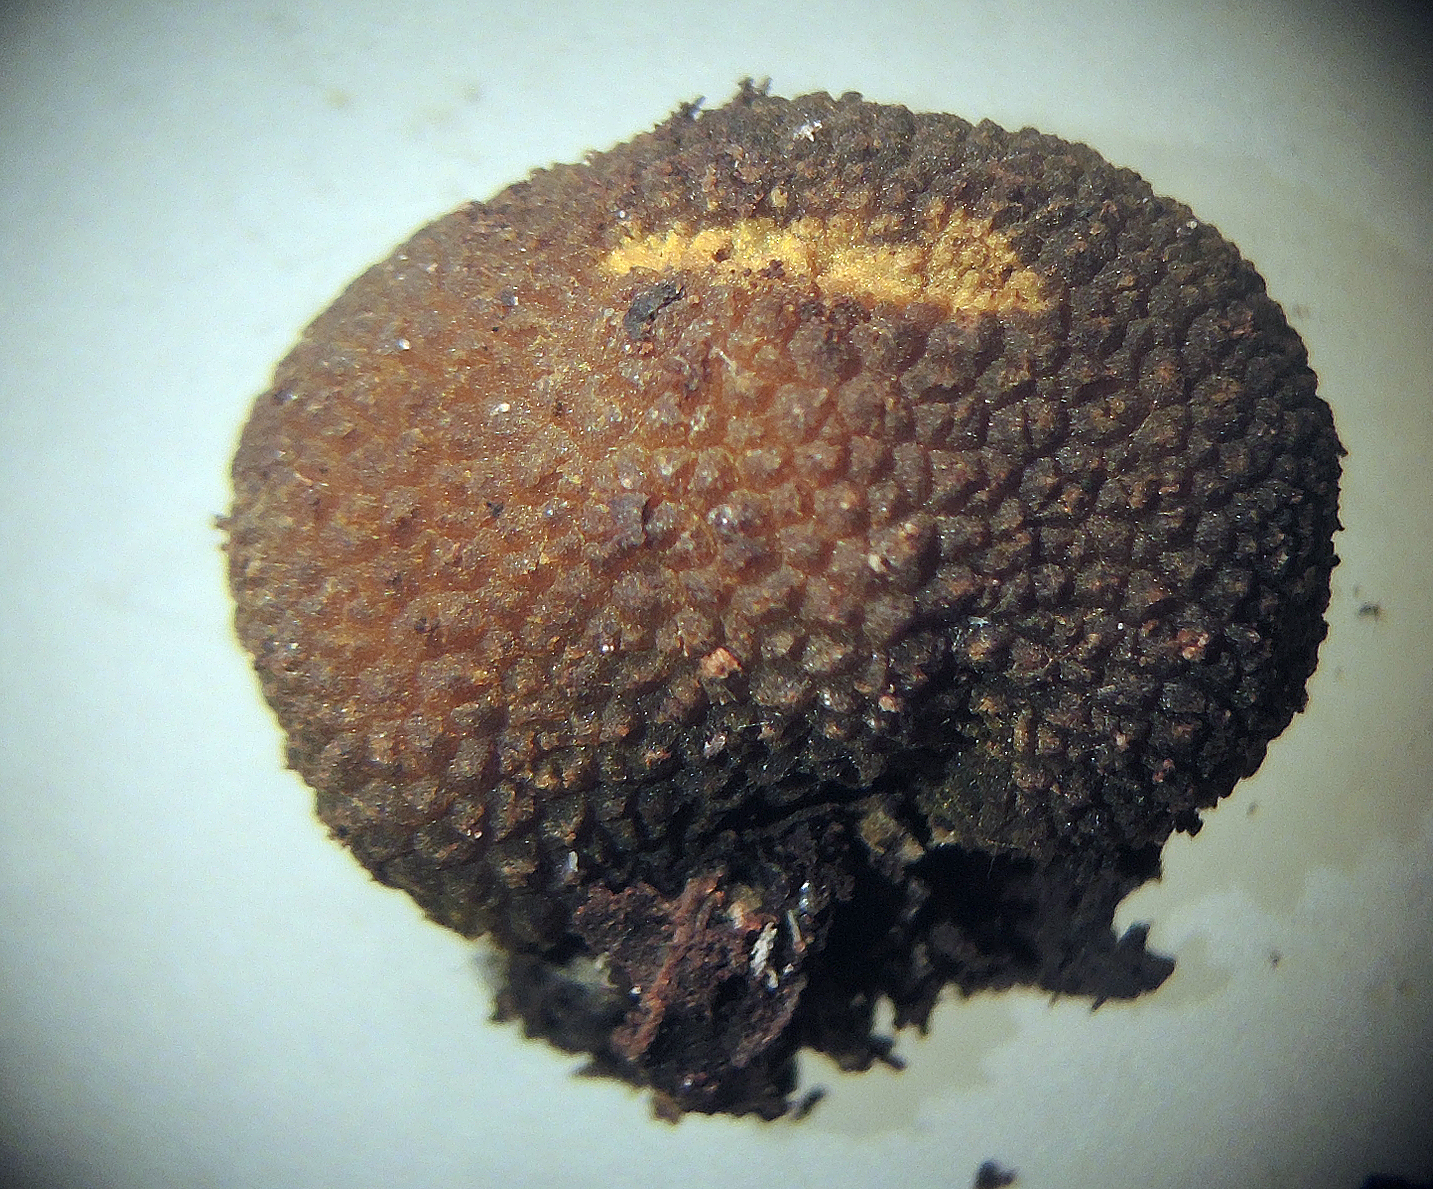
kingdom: Fungi
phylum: Ascomycota
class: Pezizomycetes
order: Pezizales
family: Pezizaceae
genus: Pachyphlodes
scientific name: Pachyphlodes nemoralis
